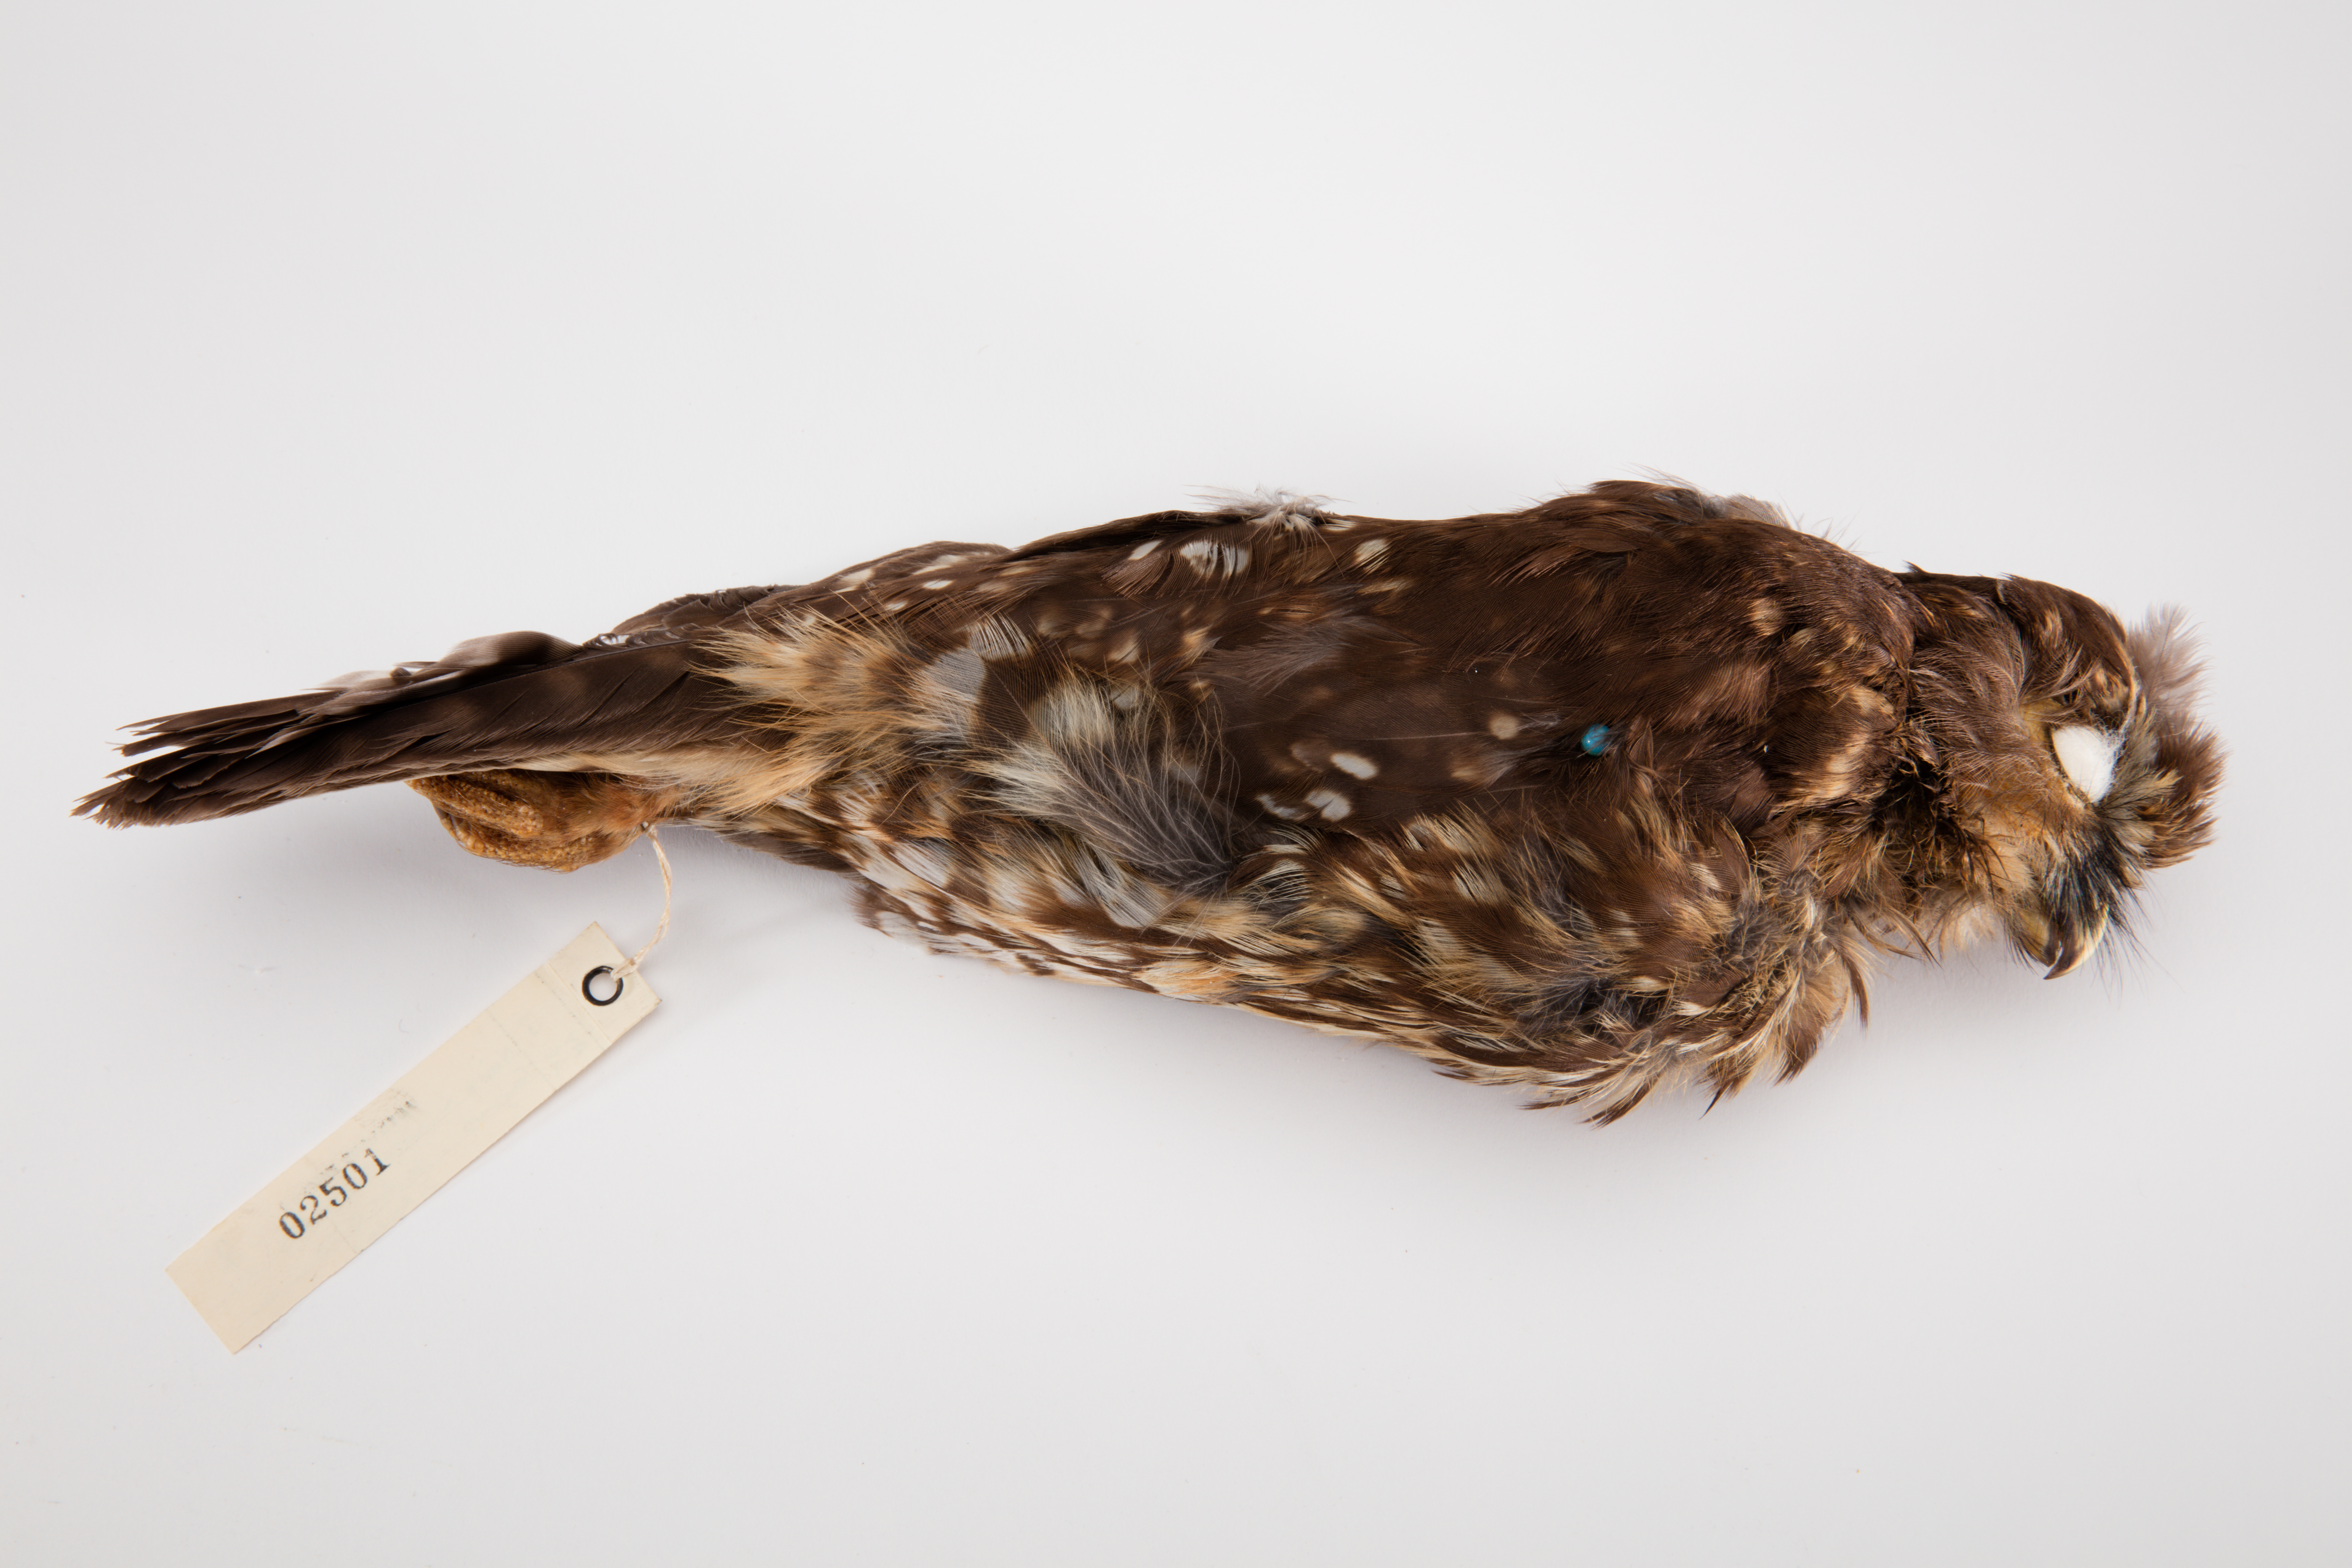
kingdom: Animalia
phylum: Chordata
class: Aves
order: Strigiformes
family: Strigidae
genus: Ninox
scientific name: Ninox novaeseelandiae
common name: Morepork
